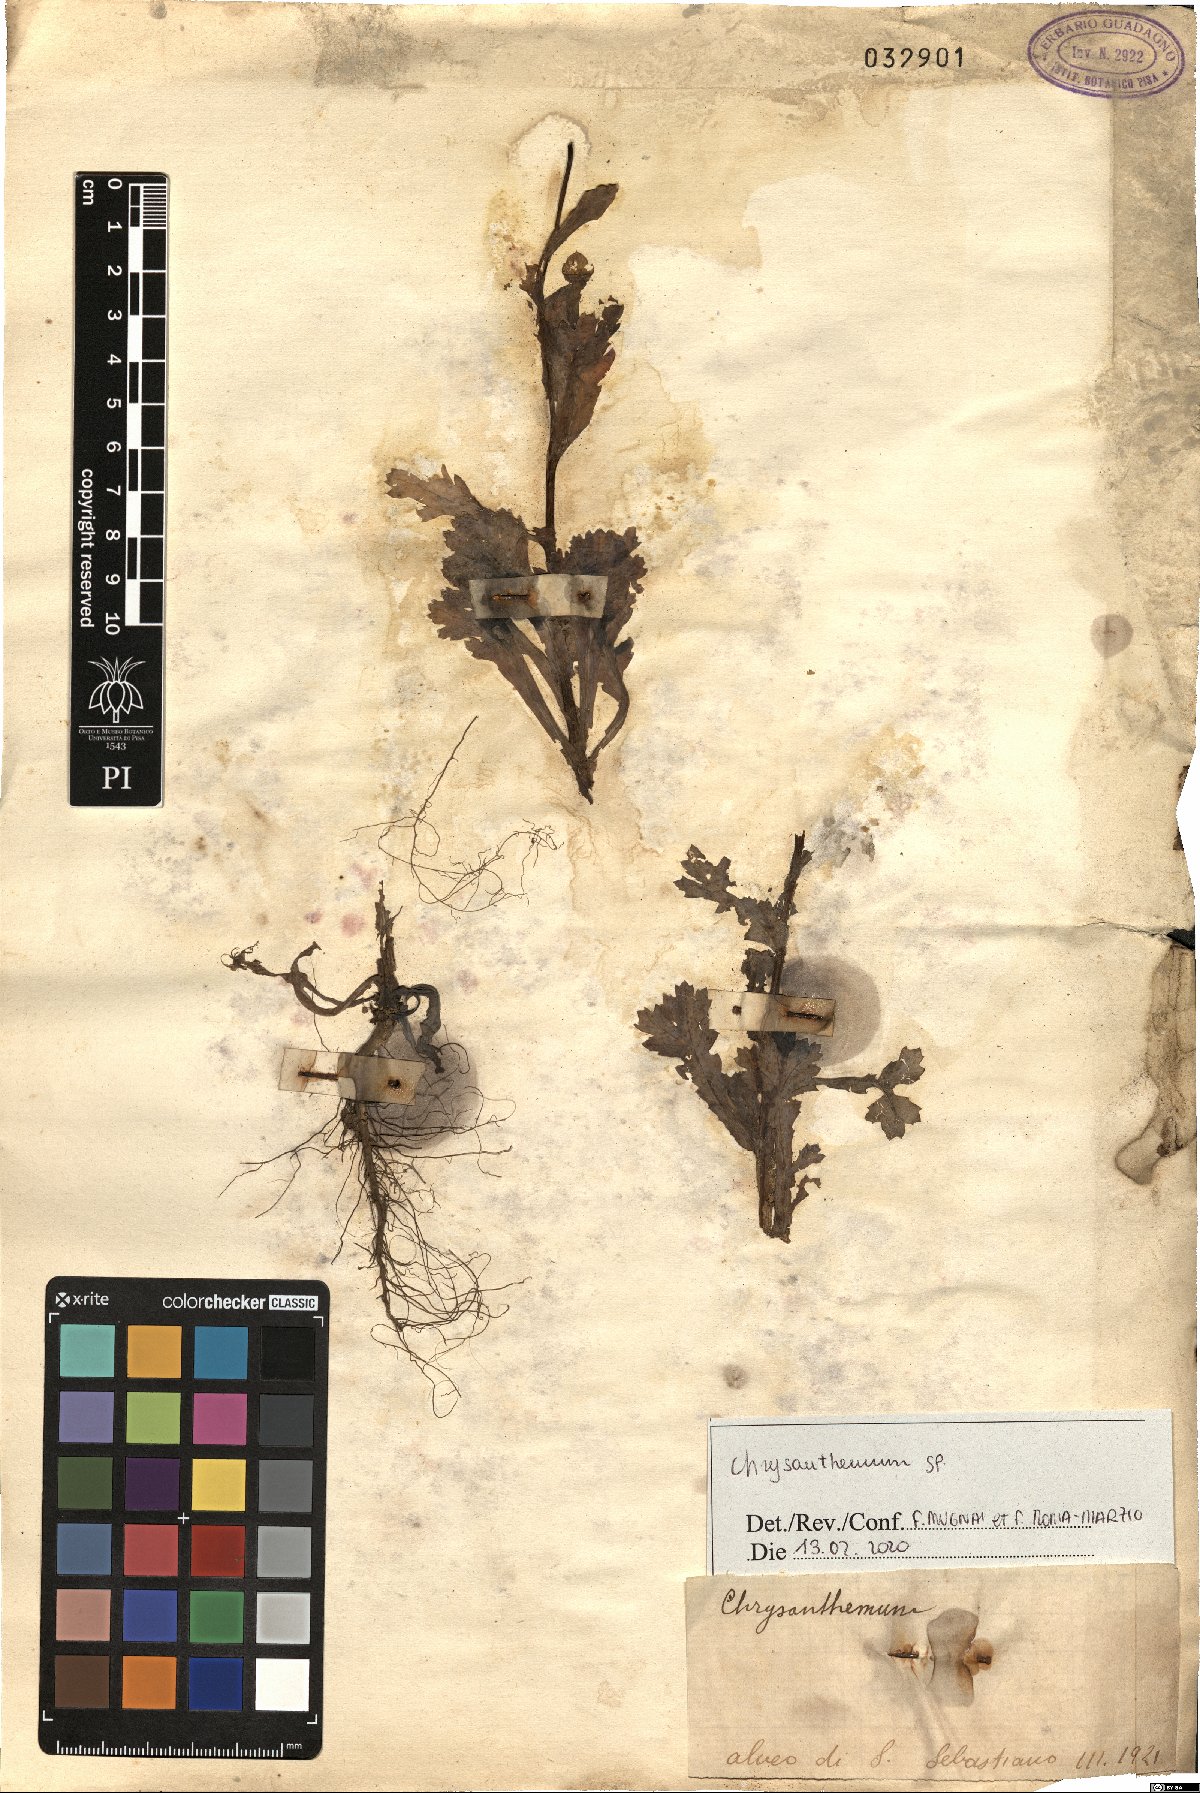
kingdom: Plantae
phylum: Tracheophyta
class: Magnoliopsida
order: Asterales
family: Asteraceae
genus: Chrysanthemum
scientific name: Chrysanthemum
